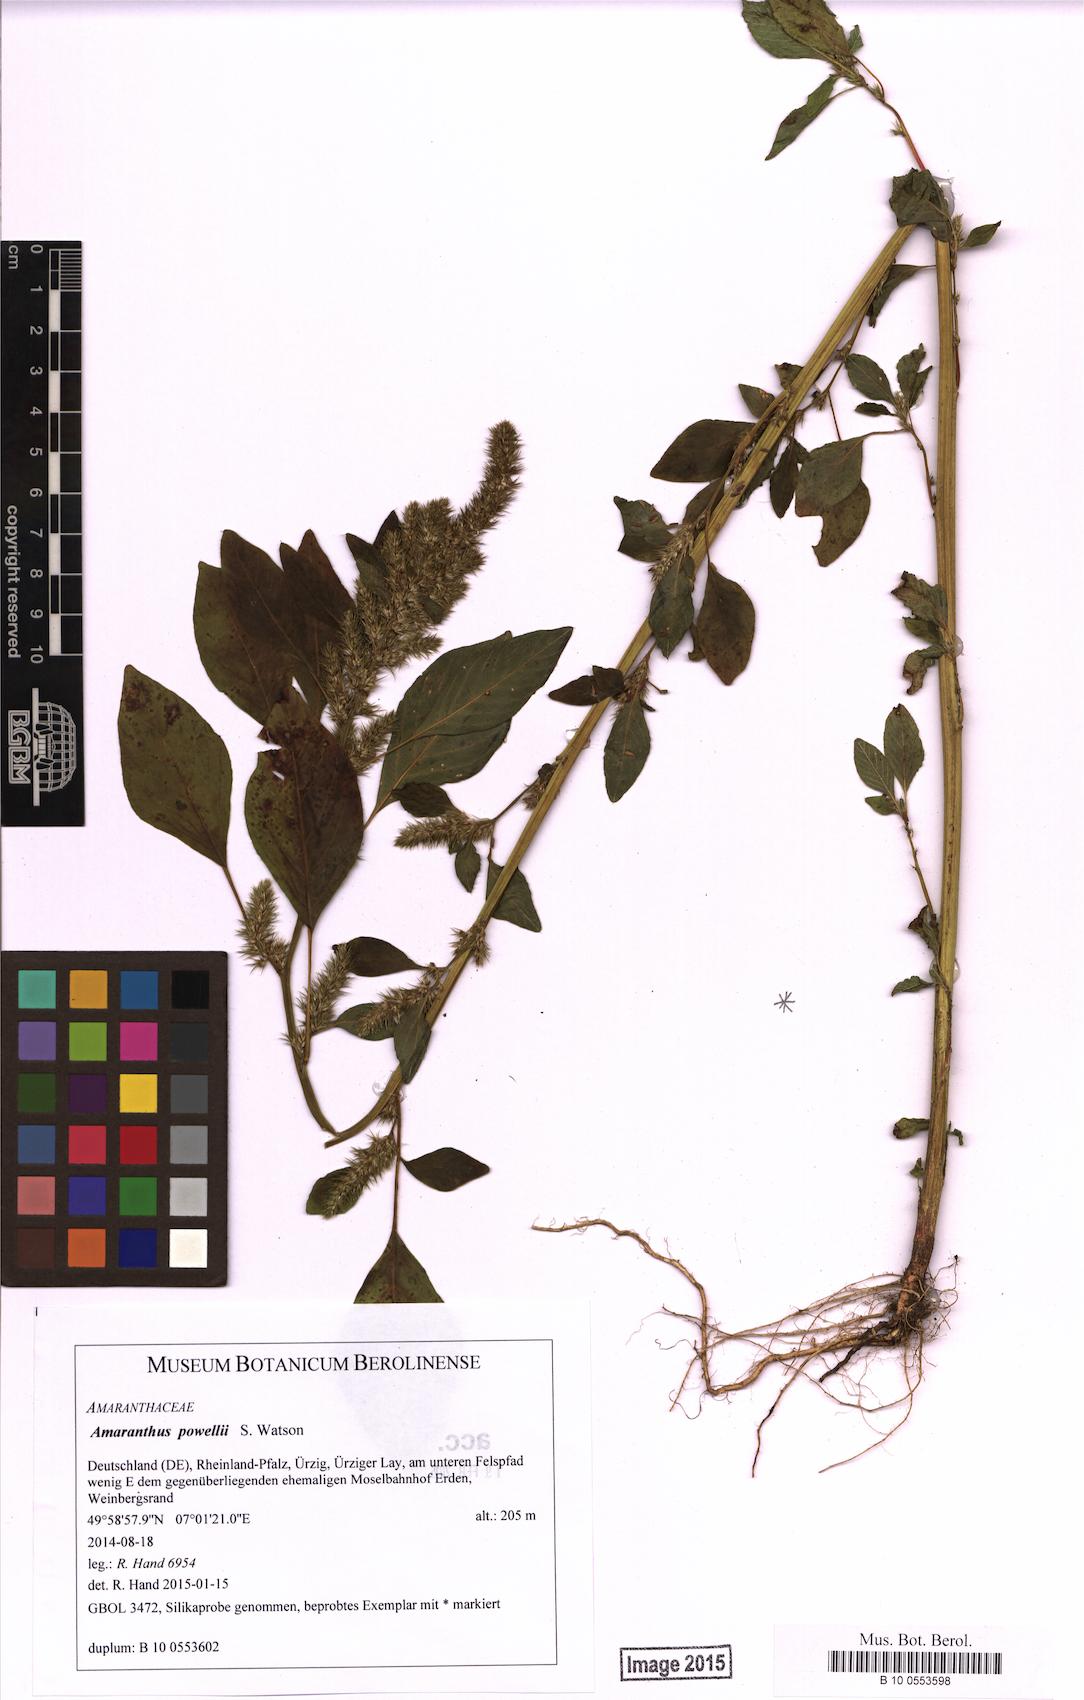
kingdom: Plantae
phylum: Tracheophyta
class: Magnoliopsida
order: Caryophyllales
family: Amaranthaceae
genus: Amaranthus
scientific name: Amaranthus powellii
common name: Powell's amaranth
